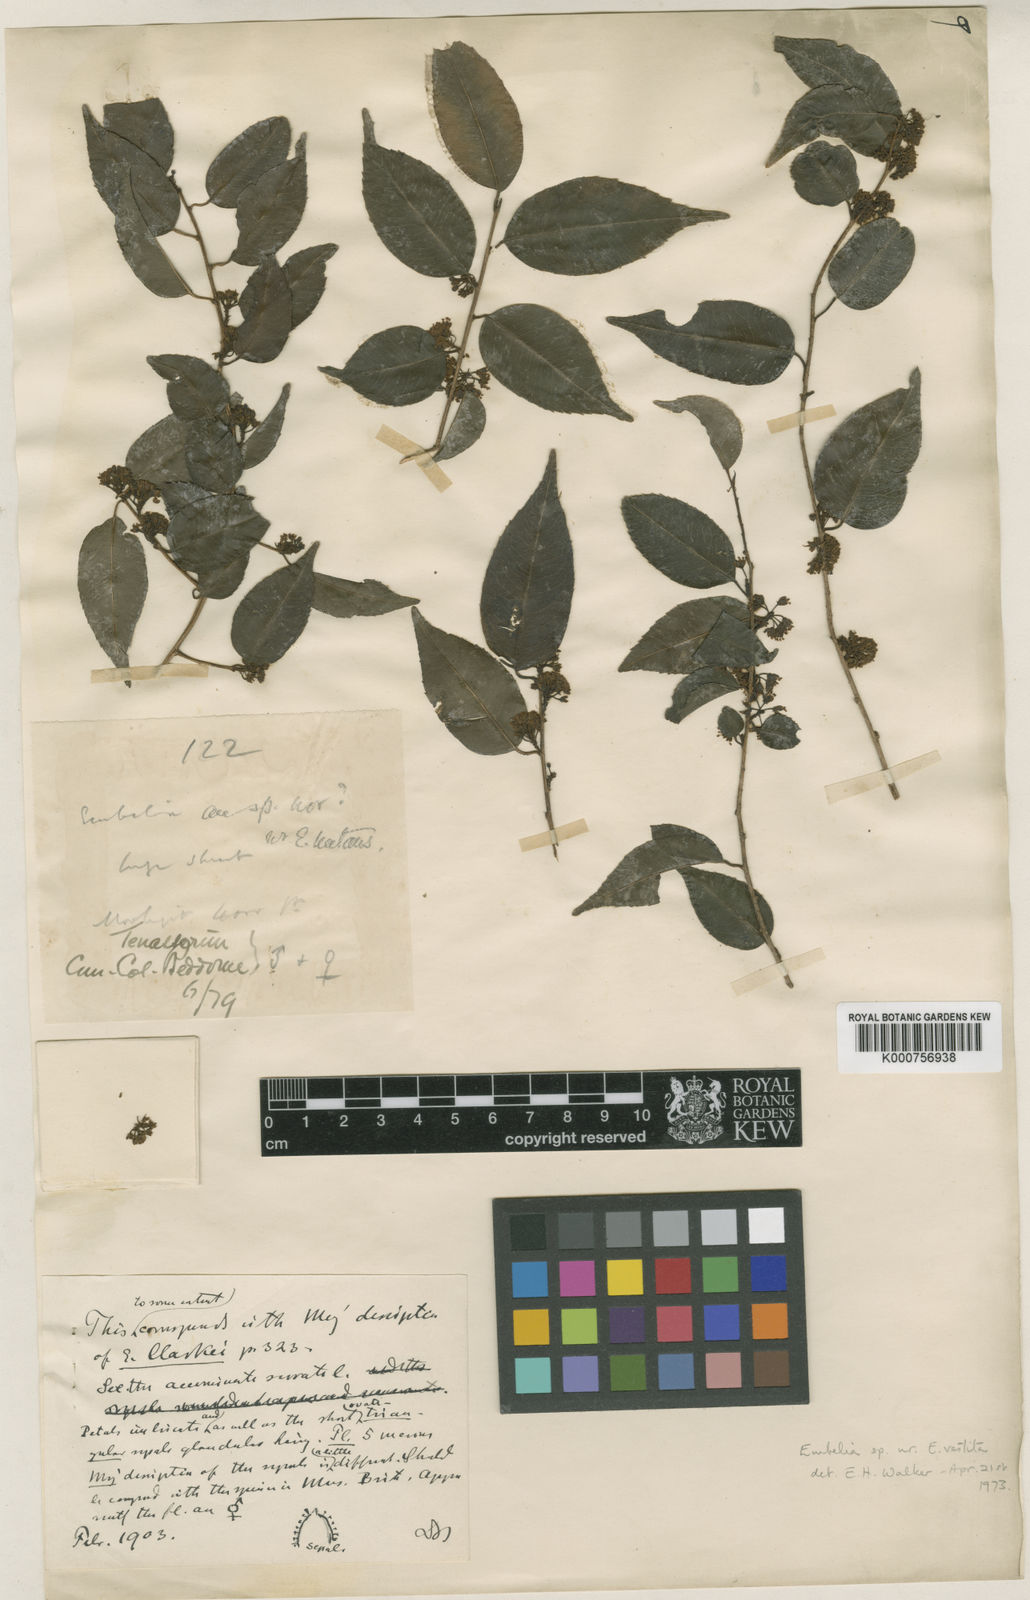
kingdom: Plantae
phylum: Tracheophyta
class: Magnoliopsida
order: Ericales
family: Primulaceae
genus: Embelia
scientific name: Embelia clarkei
